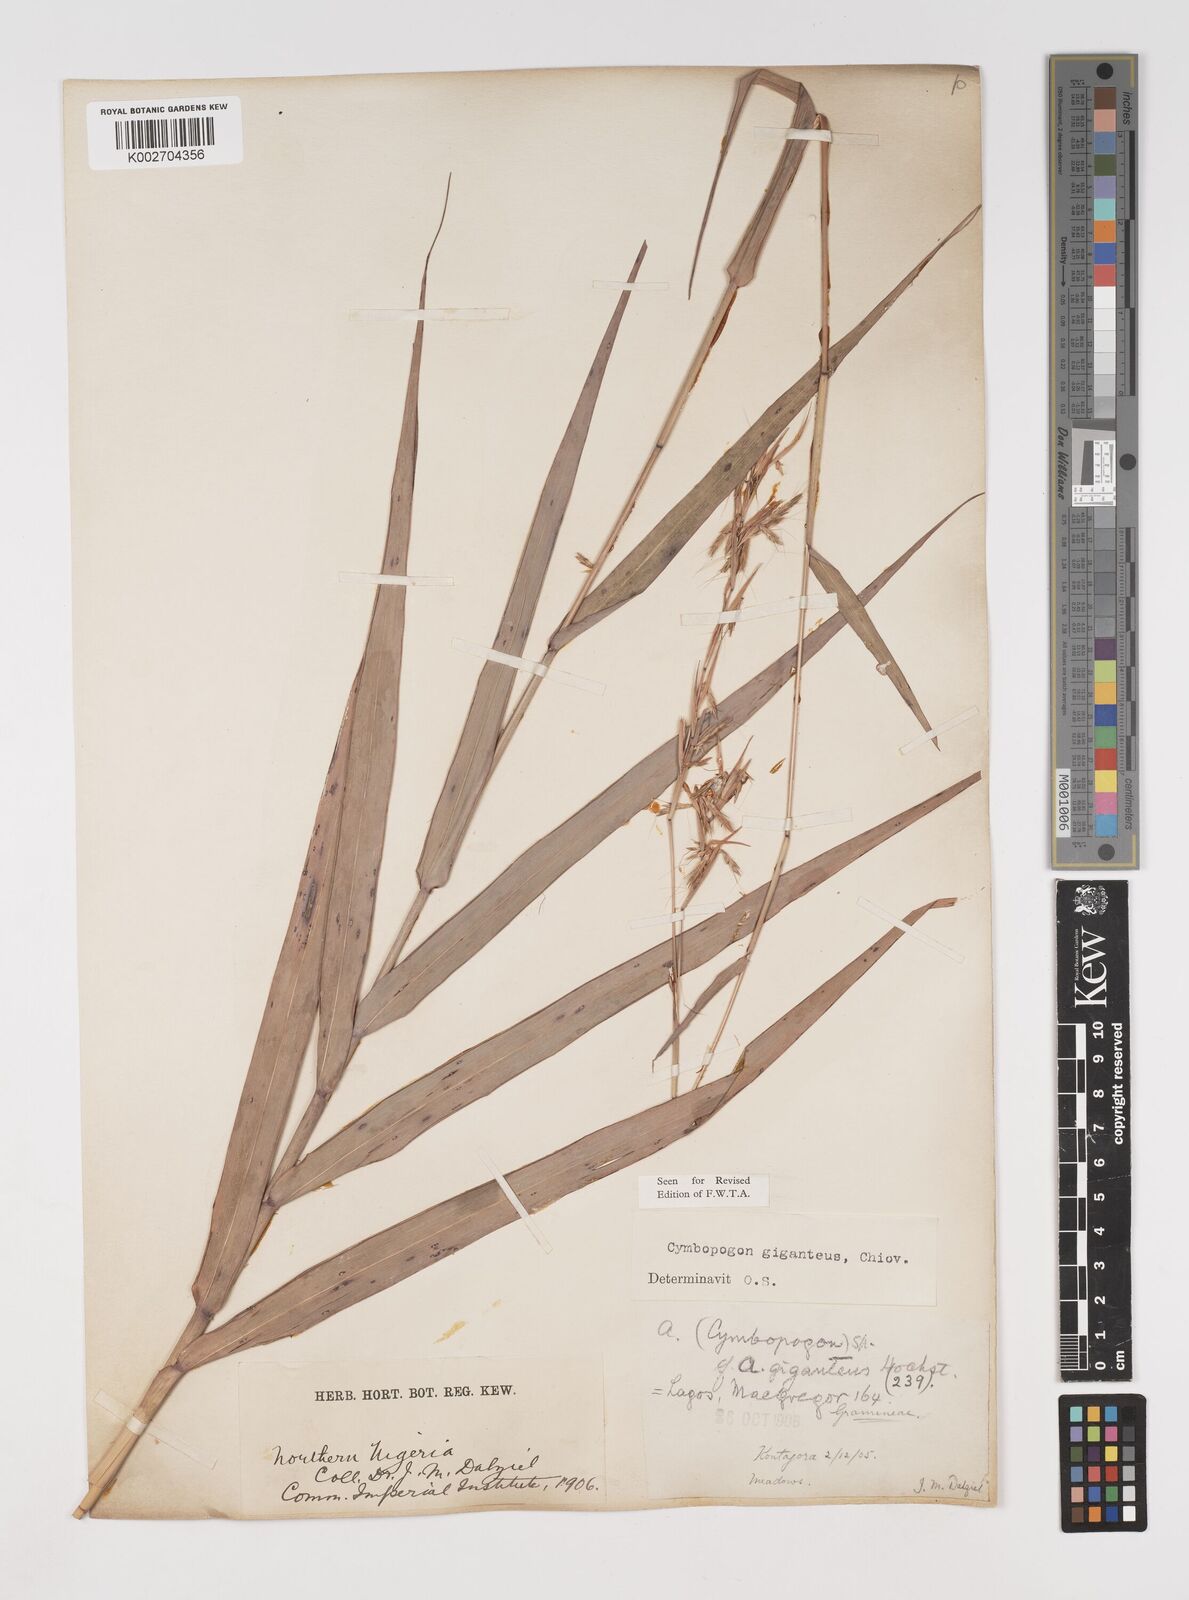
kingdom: Plantae
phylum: Tracheophyta
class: Liliopsida
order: Poales
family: Poaceae
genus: Cymbopogon
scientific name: Cymbopogon giganteus
